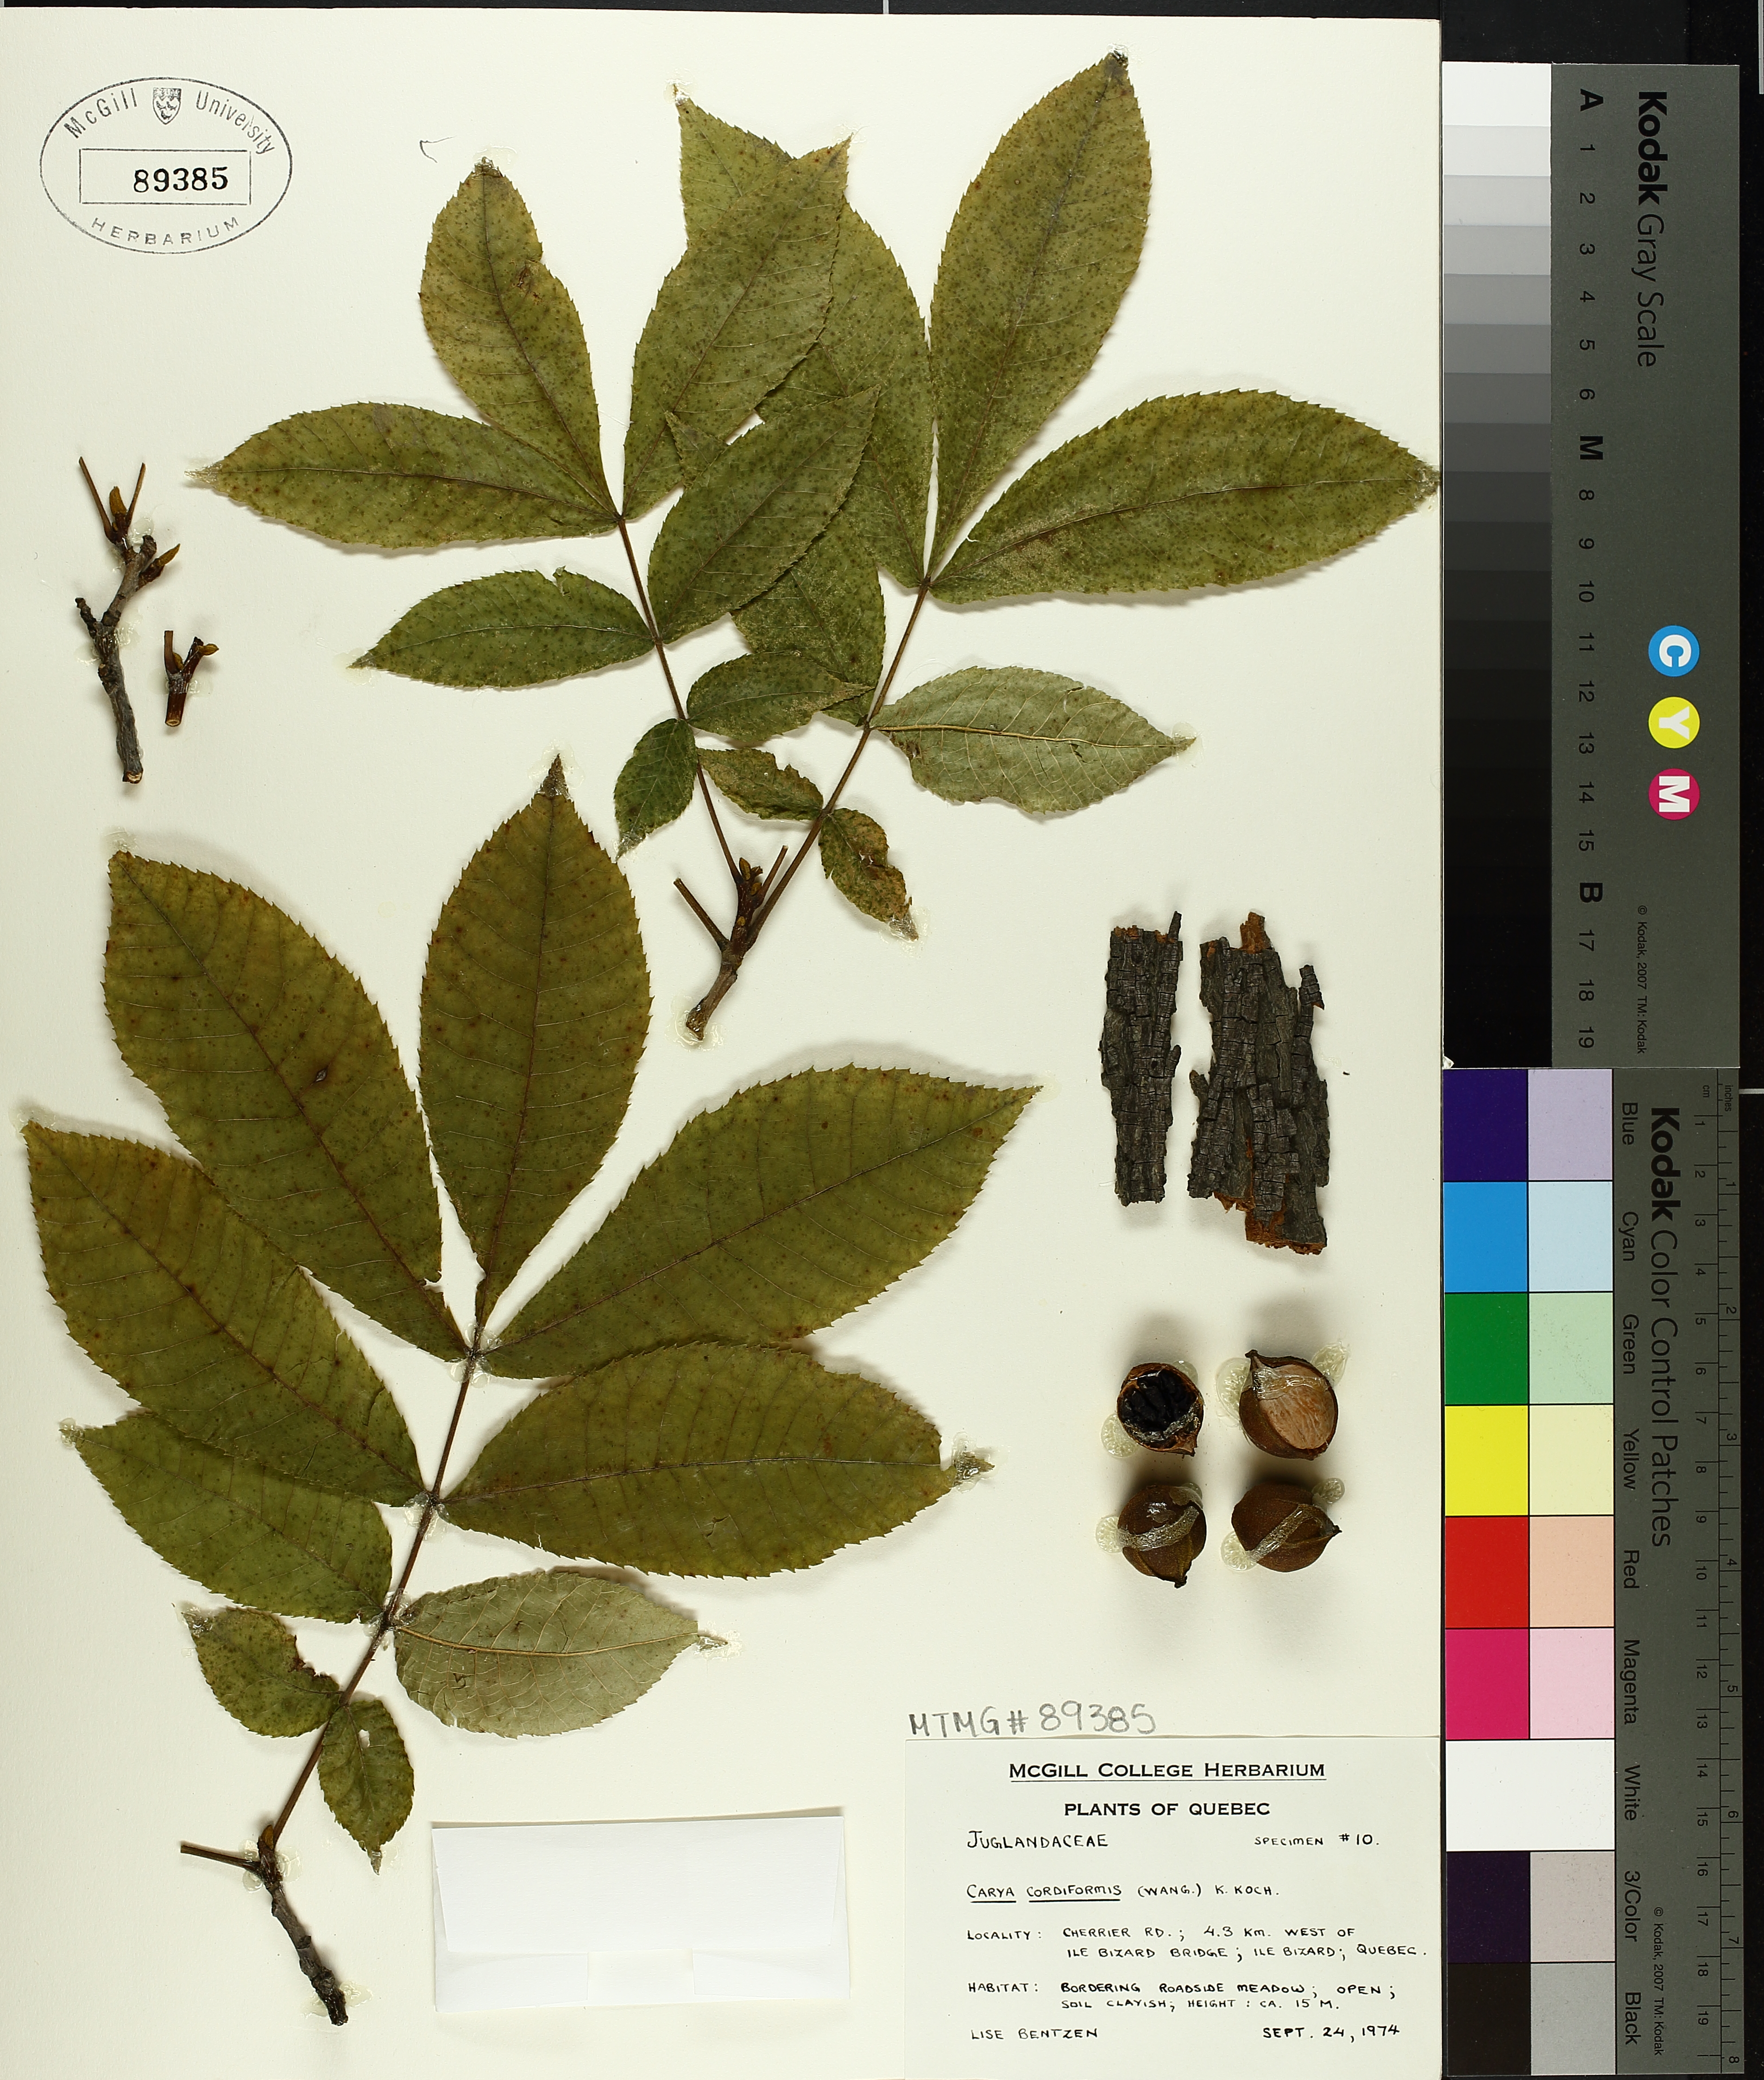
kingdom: Plantae
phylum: Tracheophyta
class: Magnoliopsida
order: Fagales
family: Juglandaceae
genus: Carya
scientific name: Carya cordiformis
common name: Bitternut hickory
